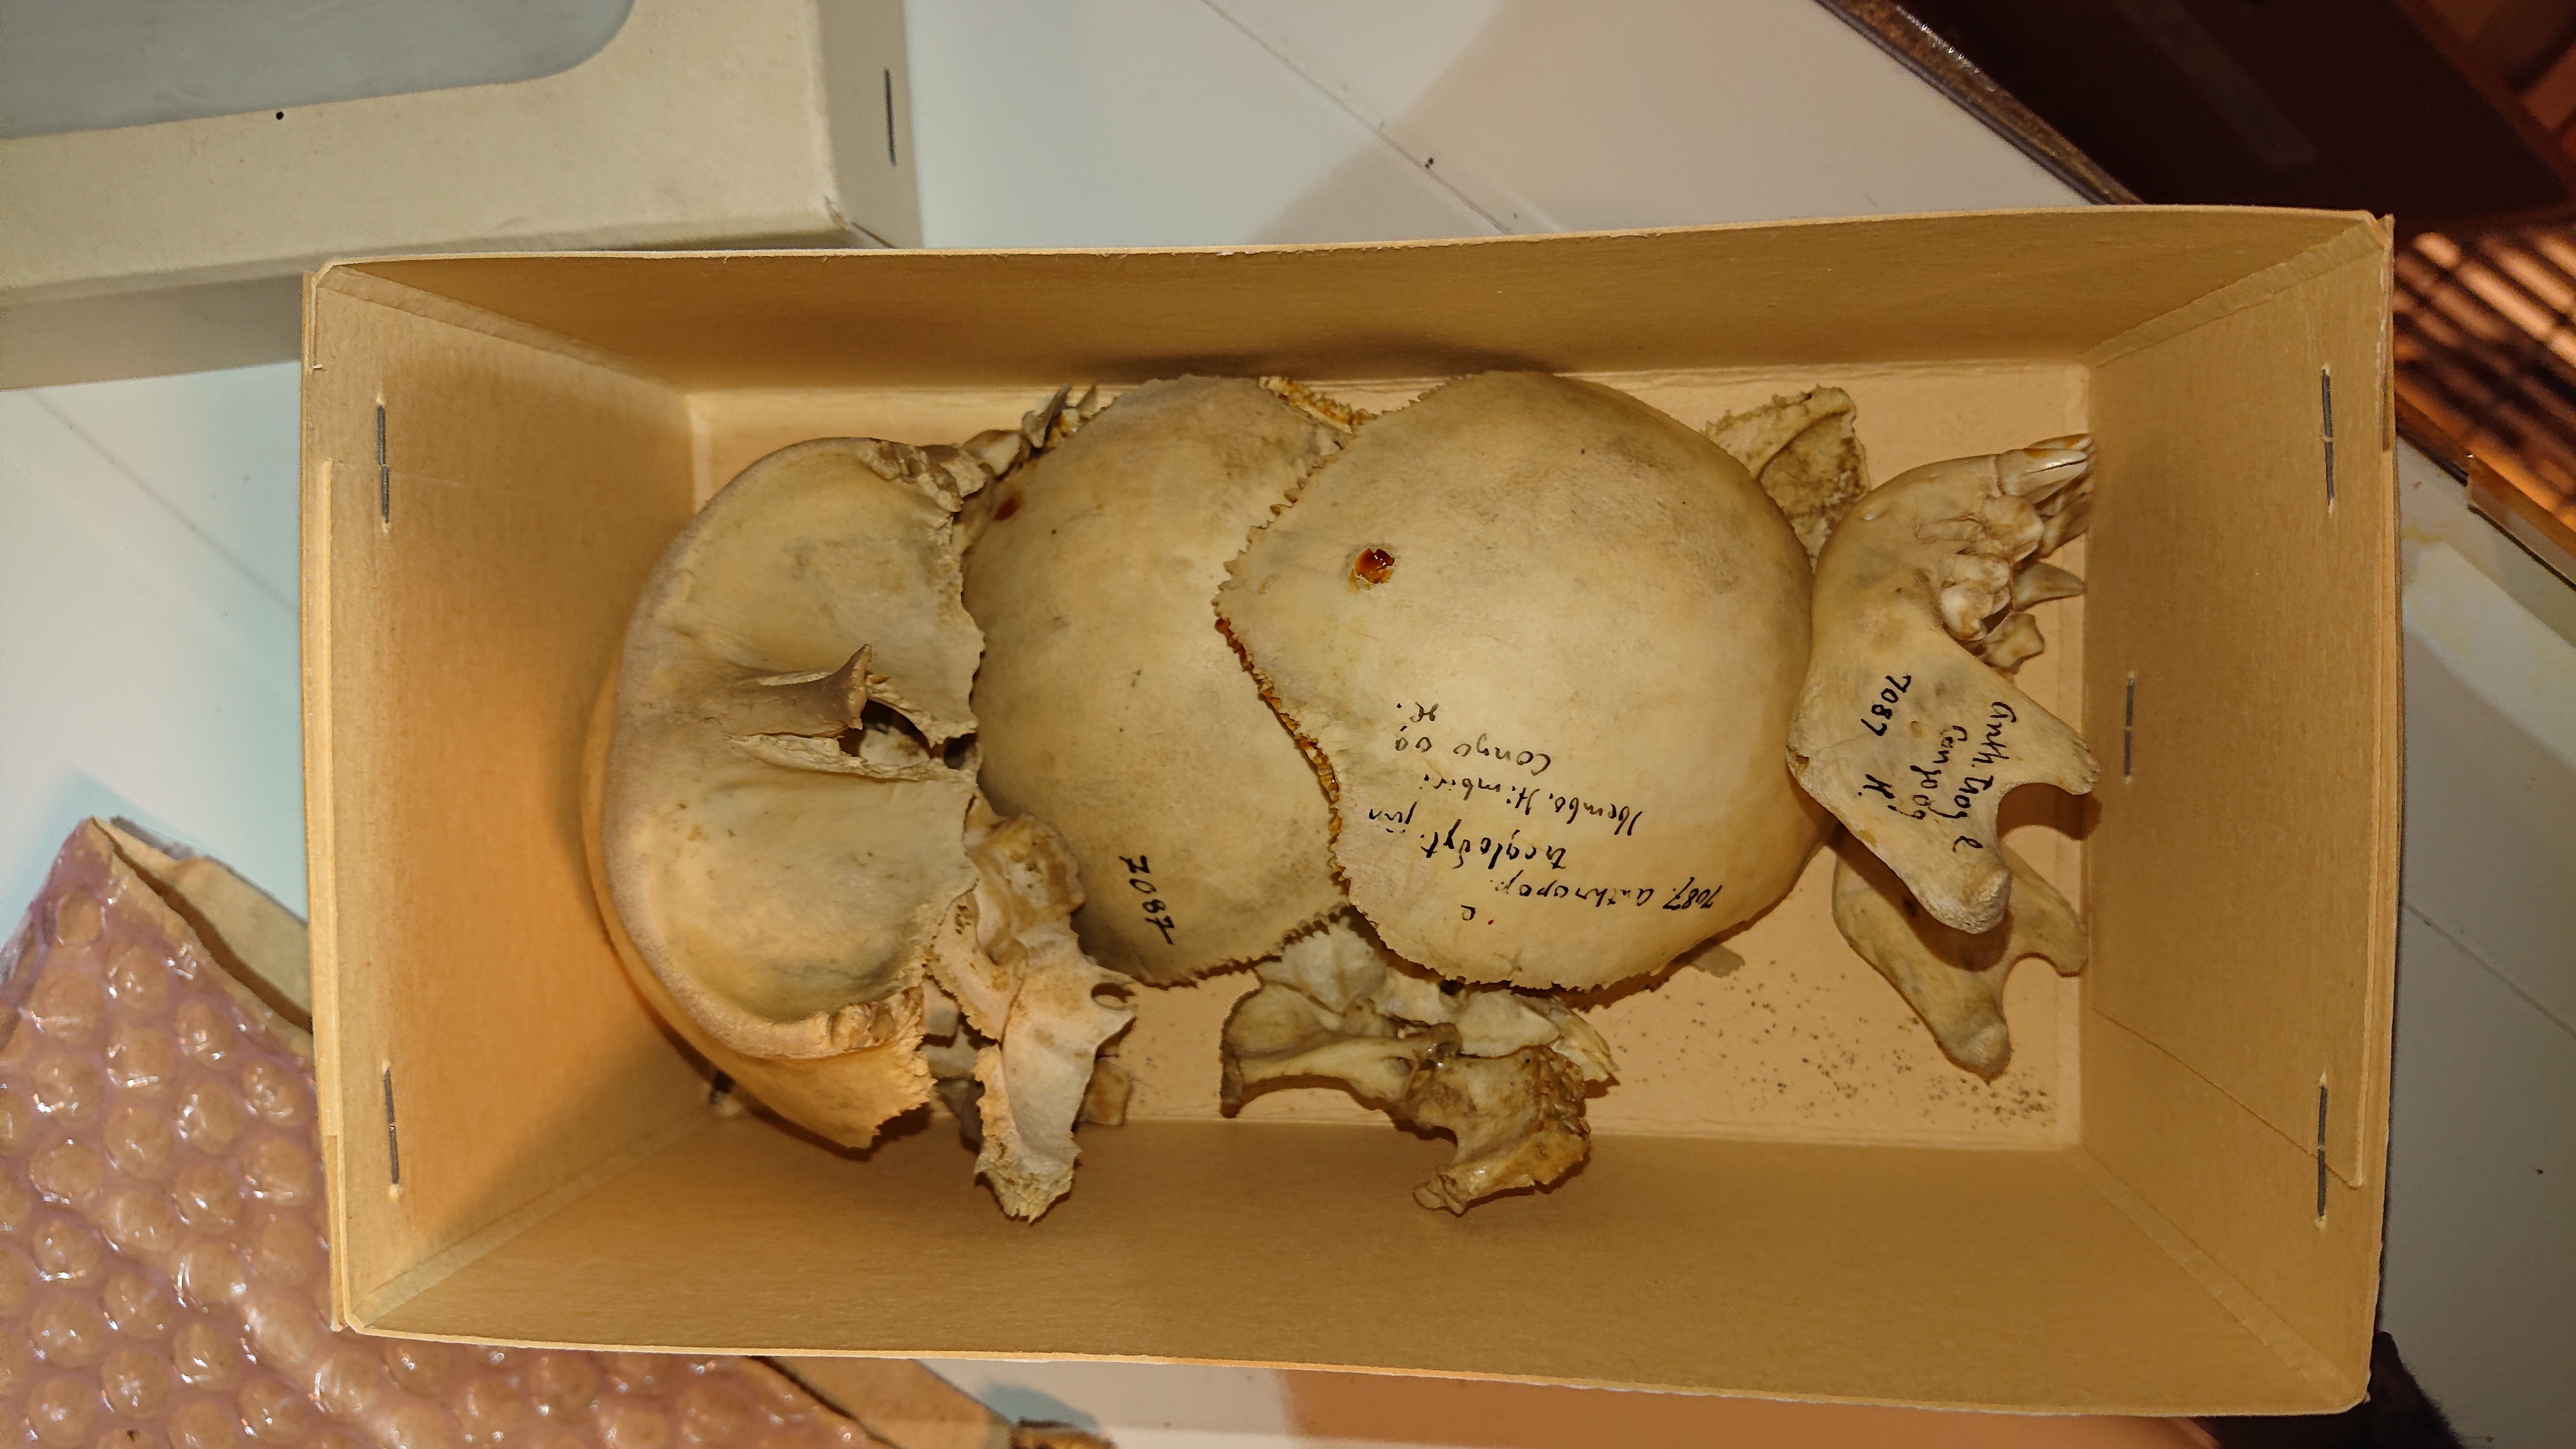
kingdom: Animalia
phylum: Chordata
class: Mammalia
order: Primates
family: Hominidae
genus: Pan
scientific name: Pan troglodytes
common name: Chimpanzee
